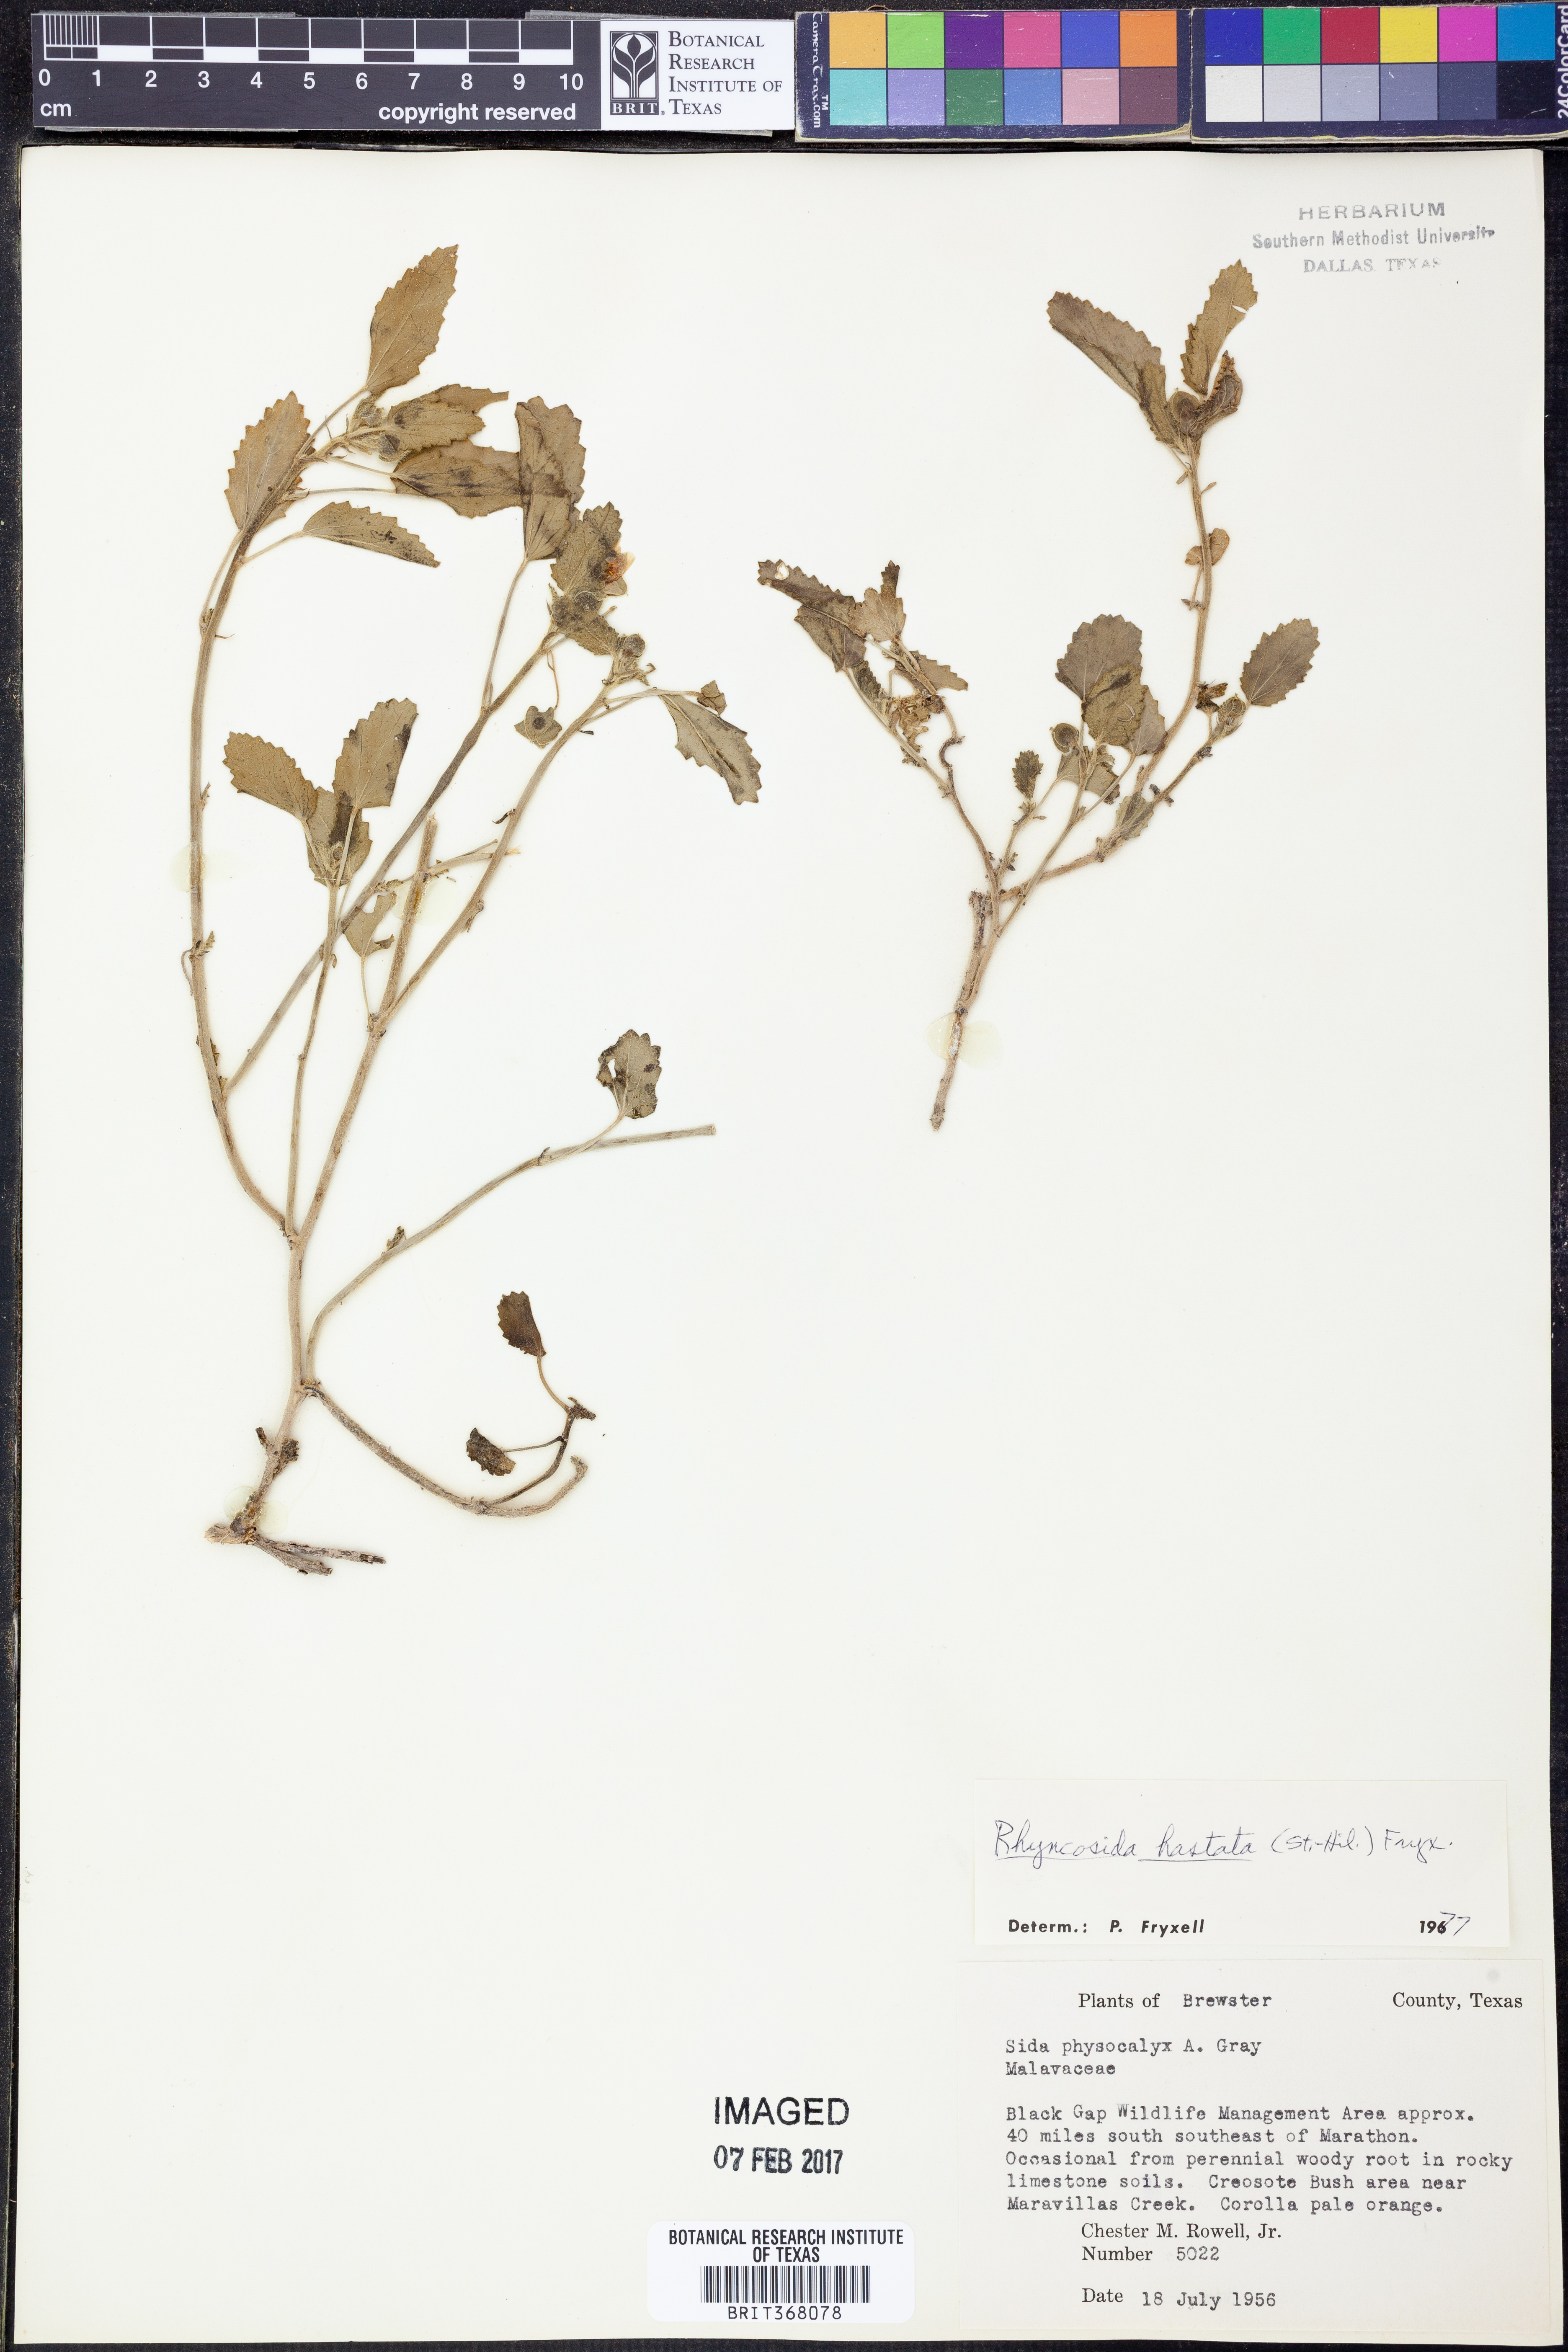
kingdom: Plantae
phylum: Tracheophyta
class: Magnoliopsida
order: Malvales
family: Malvaceae
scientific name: Malvaceae
